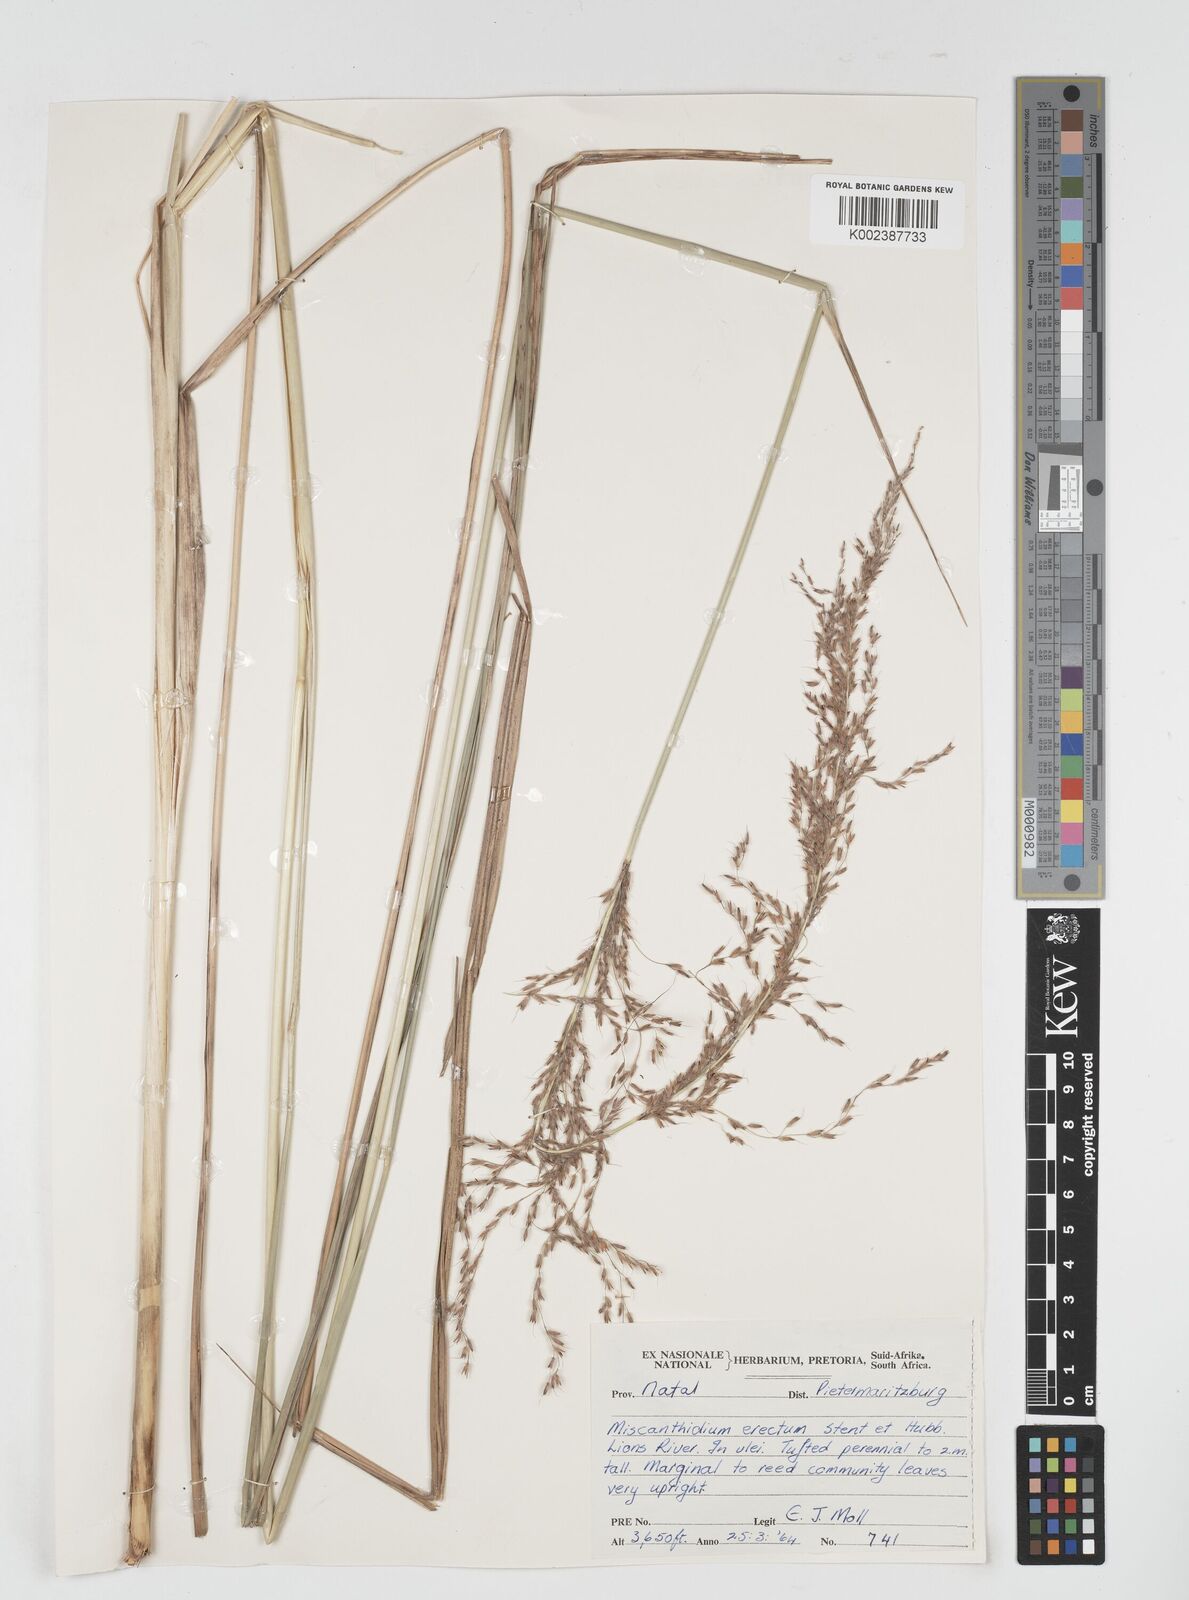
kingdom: Plantae
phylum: Tracheophyta
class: Liliopsida
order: Poales
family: Poaceae
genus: Miscanthus
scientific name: Miscanthus ecklonii
